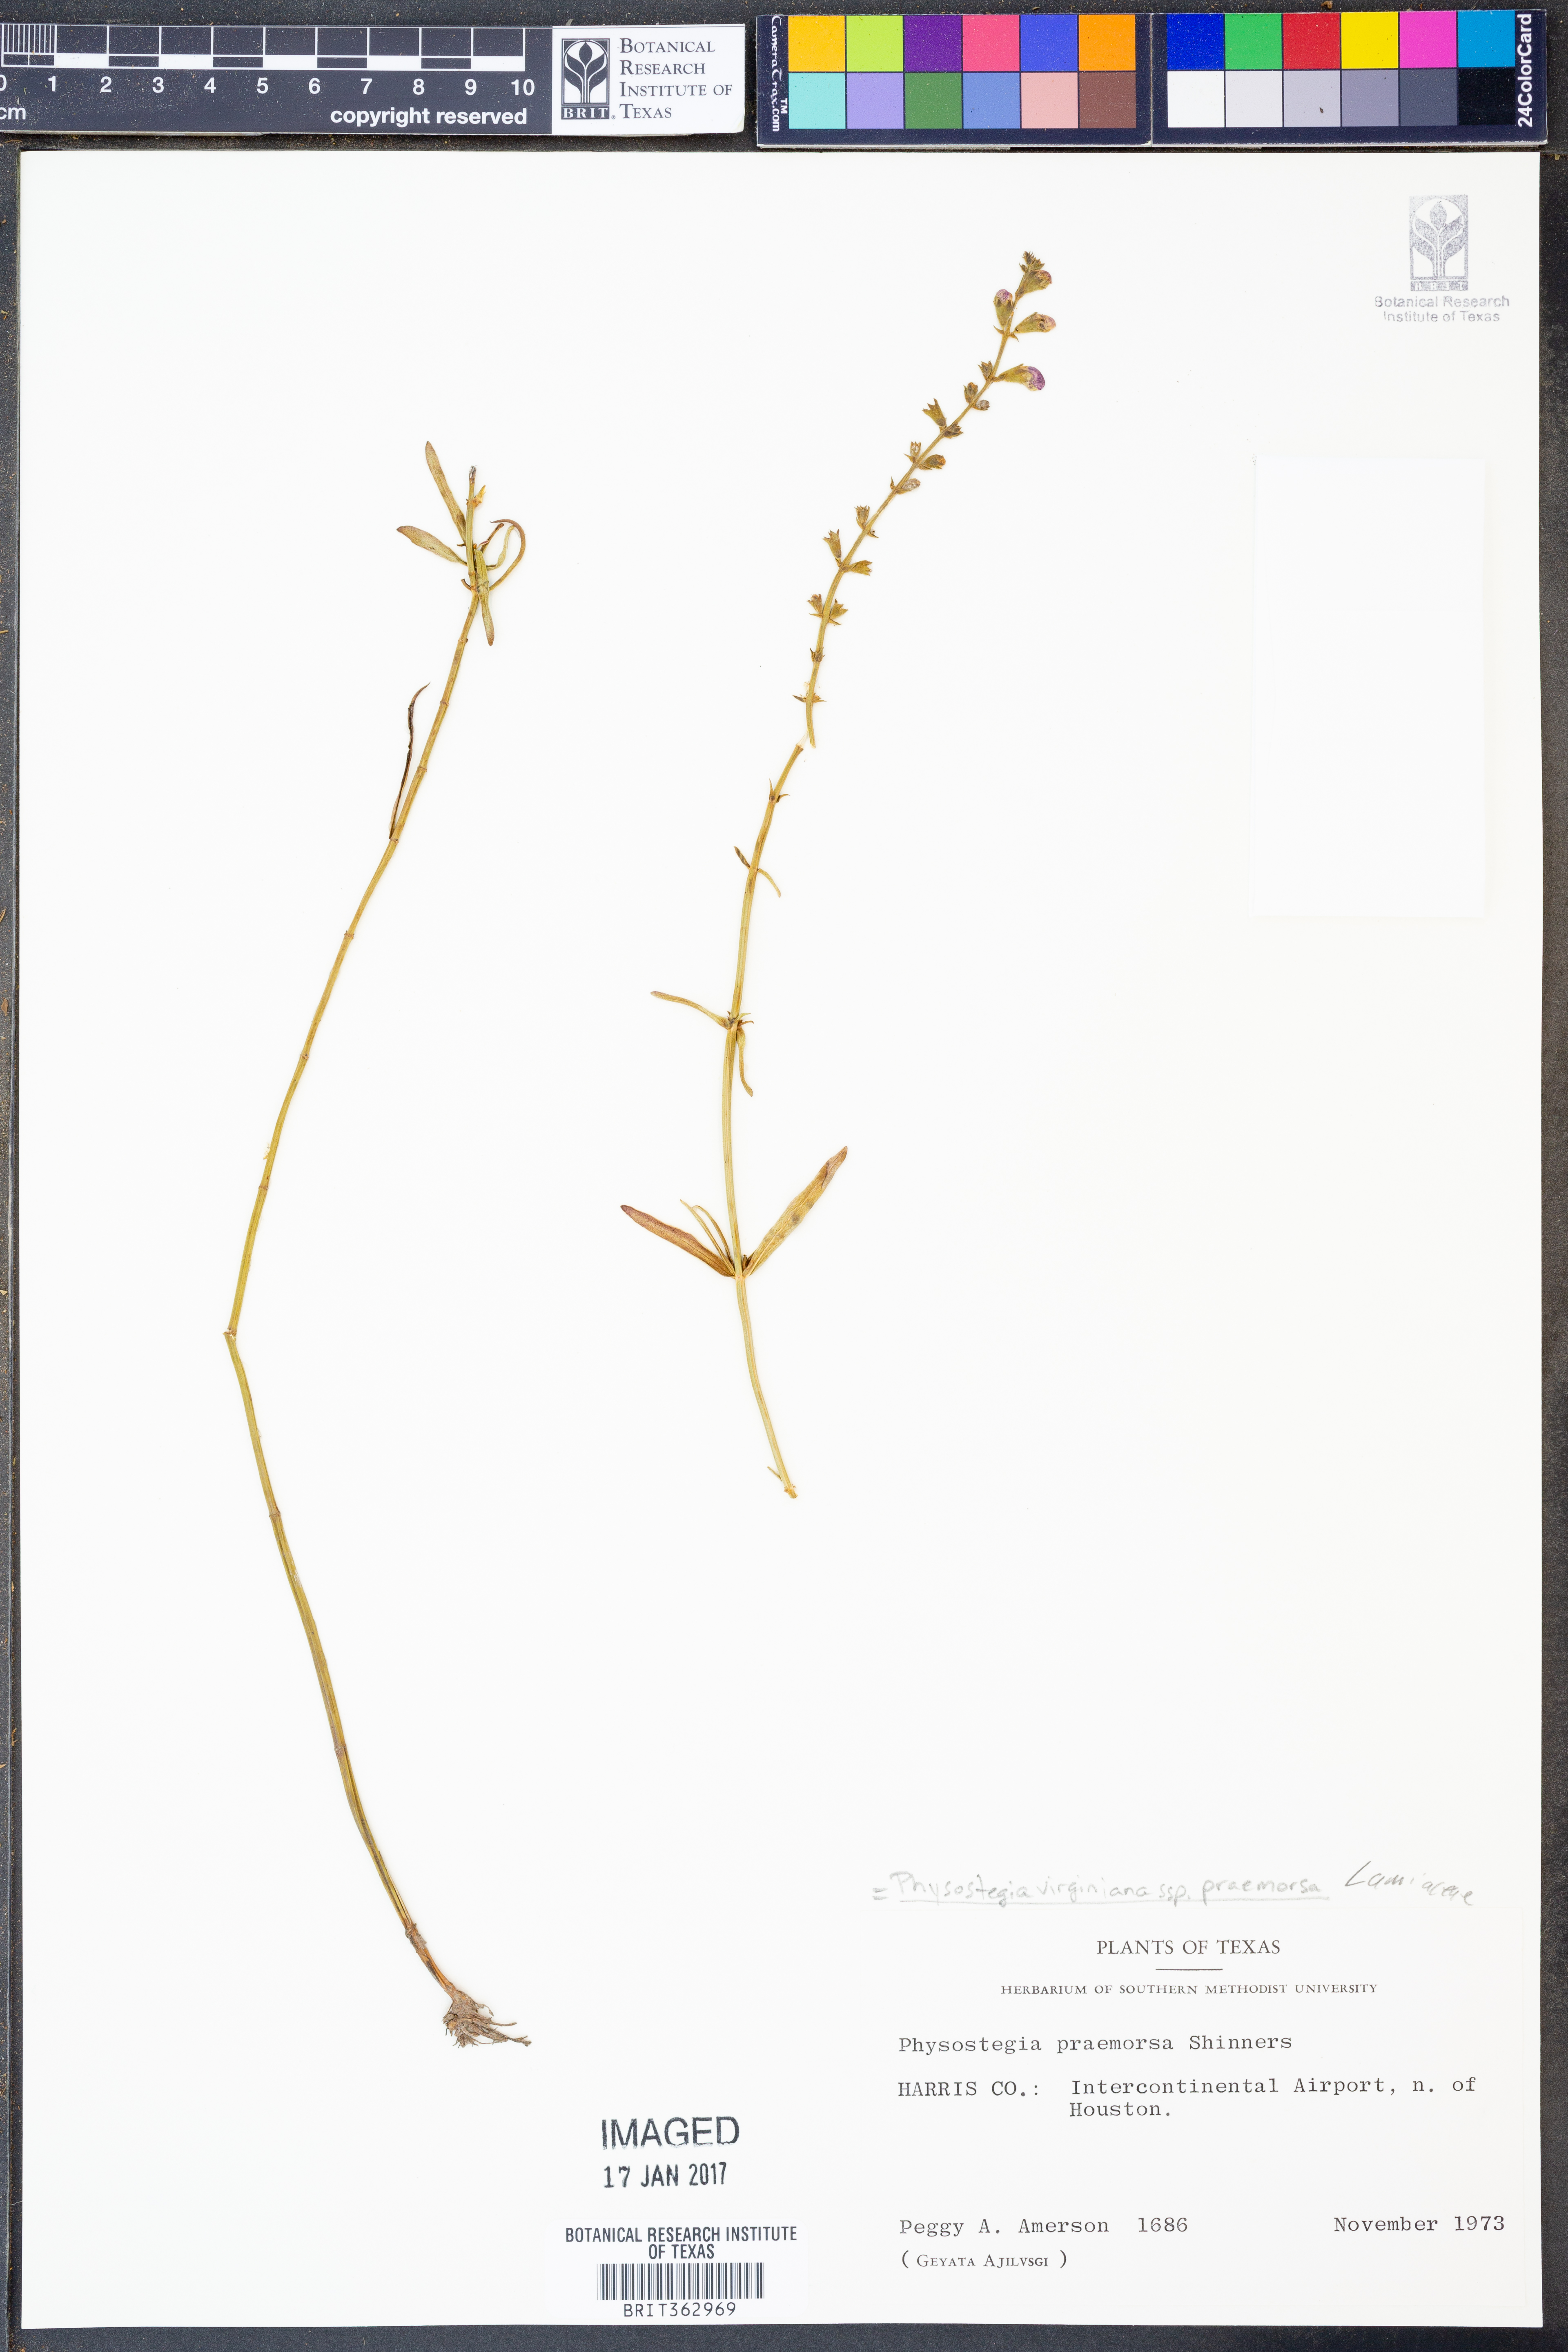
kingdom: Plantae
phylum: Tracheophyta
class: Magnoliopsida
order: Lamiales
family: Lamiaceae
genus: Physostegia
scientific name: Physostegia virginiana
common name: Obedient-plant
